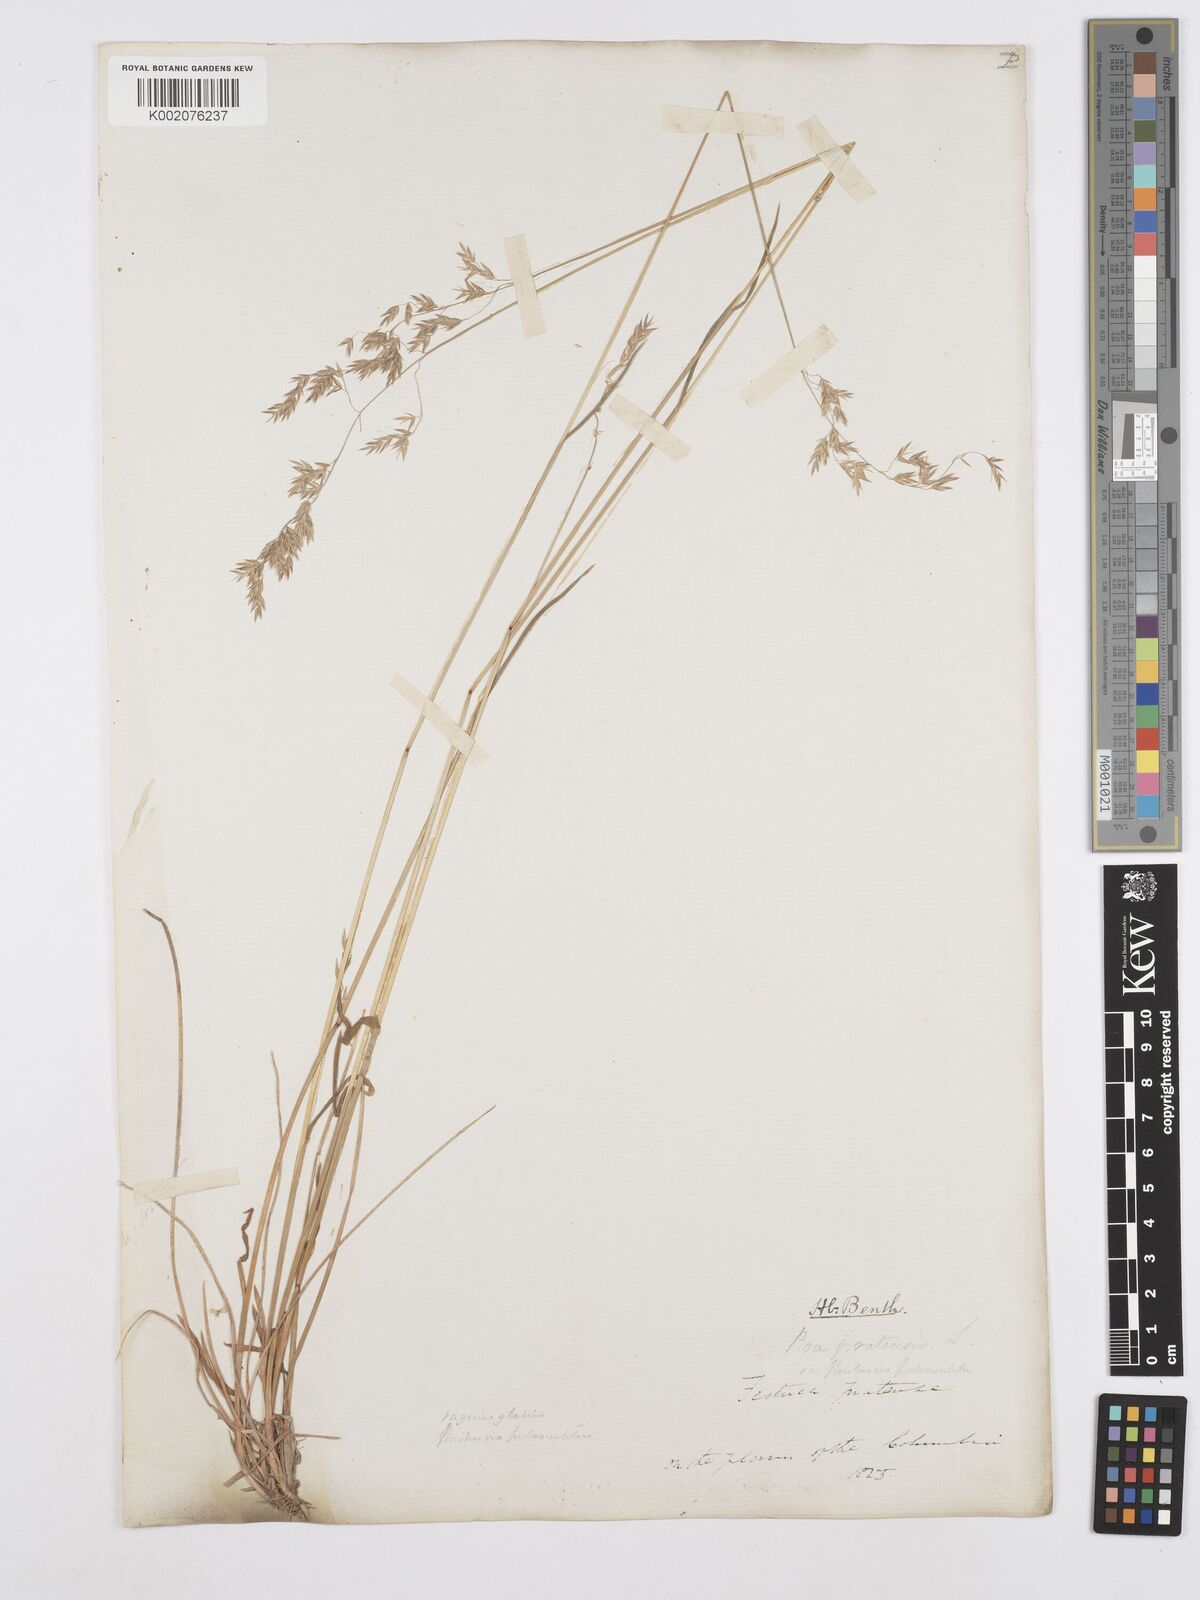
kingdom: Plantae
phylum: Tracheophyta
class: Liliopsida
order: Poales
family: Poaceae
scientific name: Poaceae
